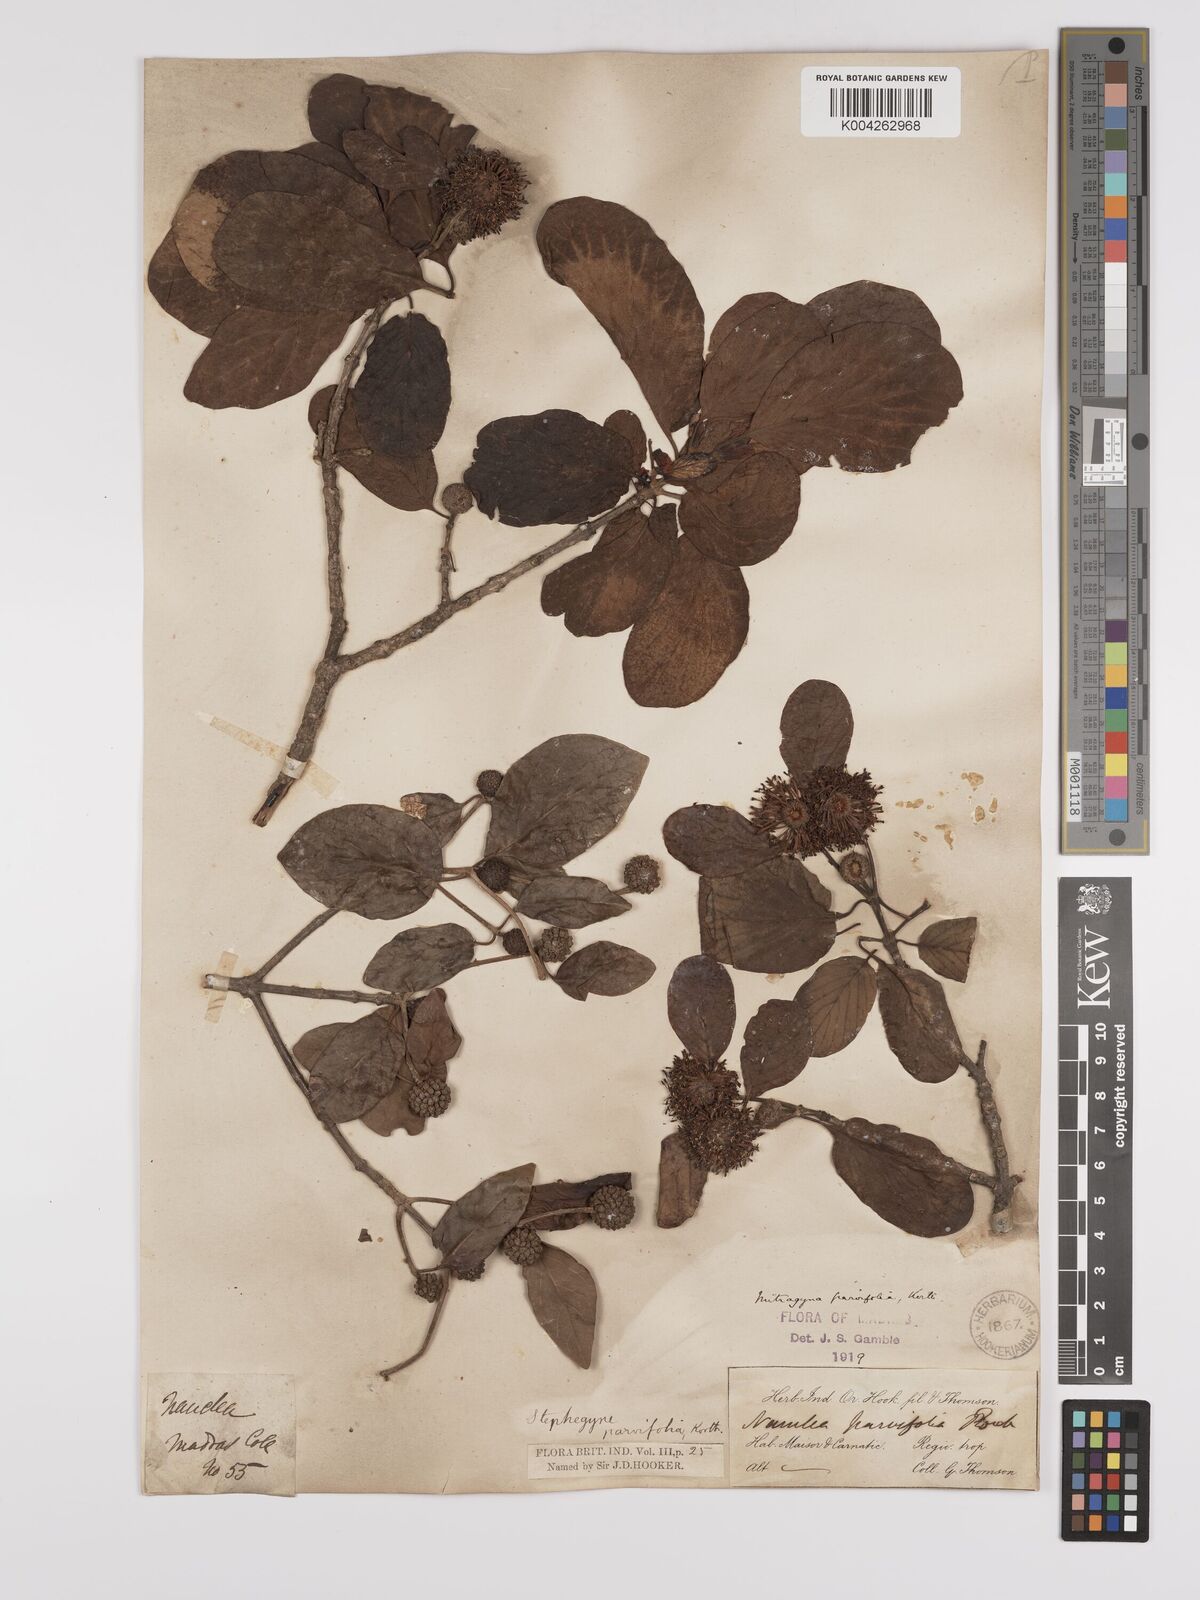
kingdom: Plantae
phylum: Tracheophyta
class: Magnoliopsida
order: Gentianales
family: Rubiaceae
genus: Mitragyna
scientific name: Mitragyna parvifolia
